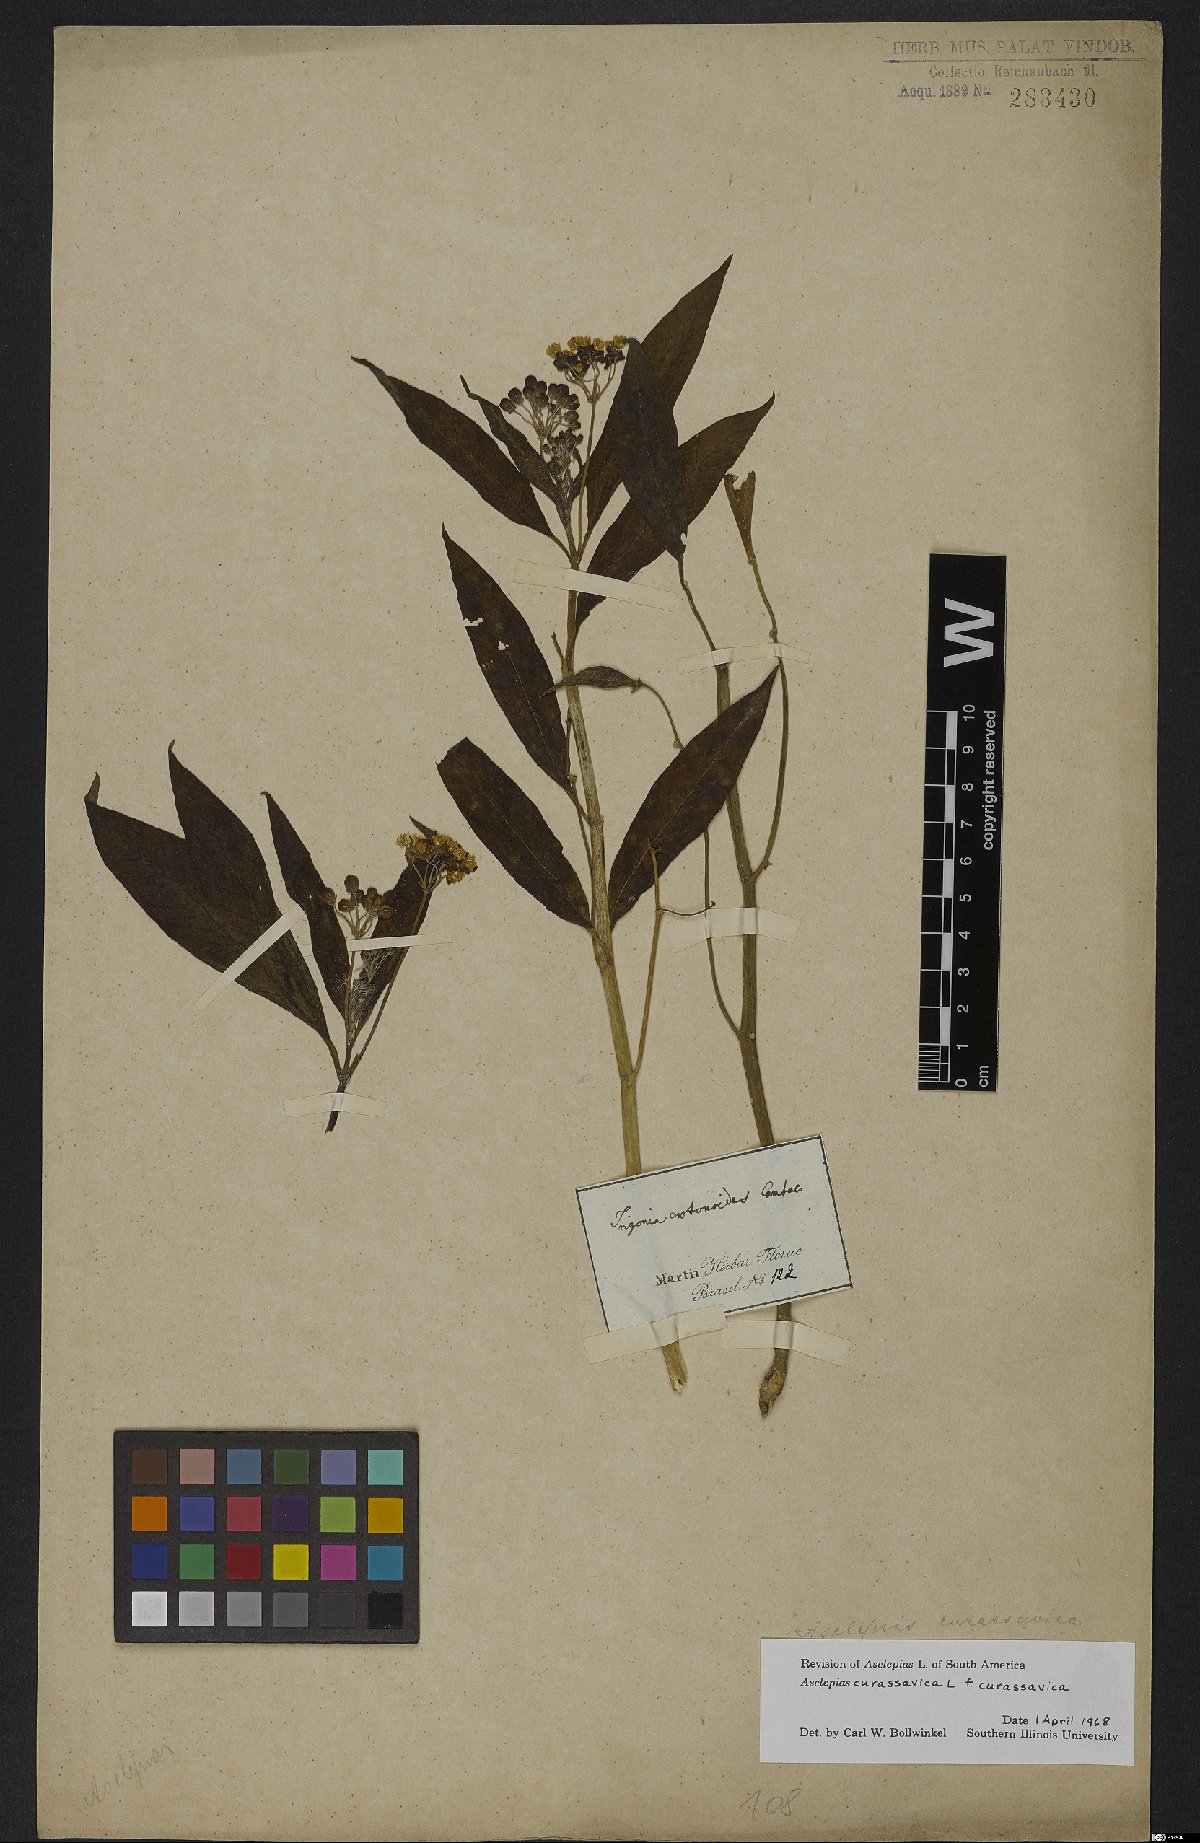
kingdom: Plantae
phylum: Tracheophyta
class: Magnoliopsida
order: Gentianales
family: Apocynaceae
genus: Asclepias
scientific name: Asclepias curassavica
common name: Bloodflower
